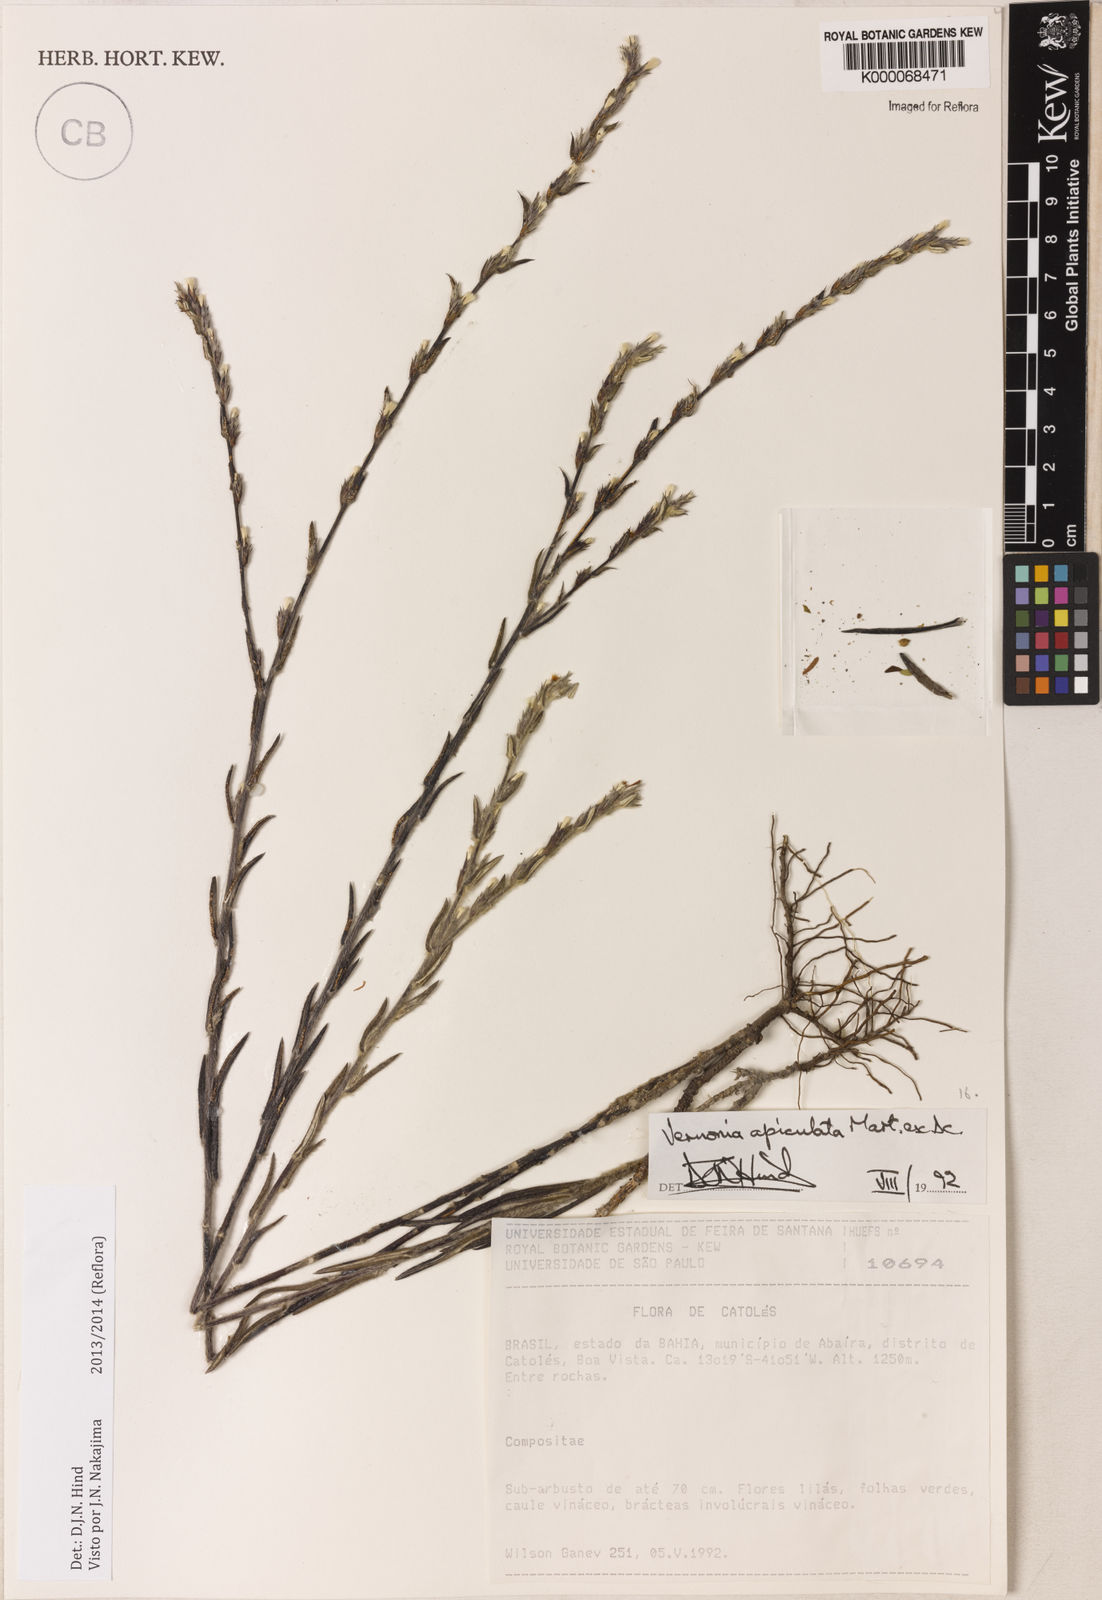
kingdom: Plantae
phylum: Tracheophyta
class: Magnoliopsida
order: Asterales
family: Asteraceae
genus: Stenocephalum
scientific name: Stenocephalum apiculatum
